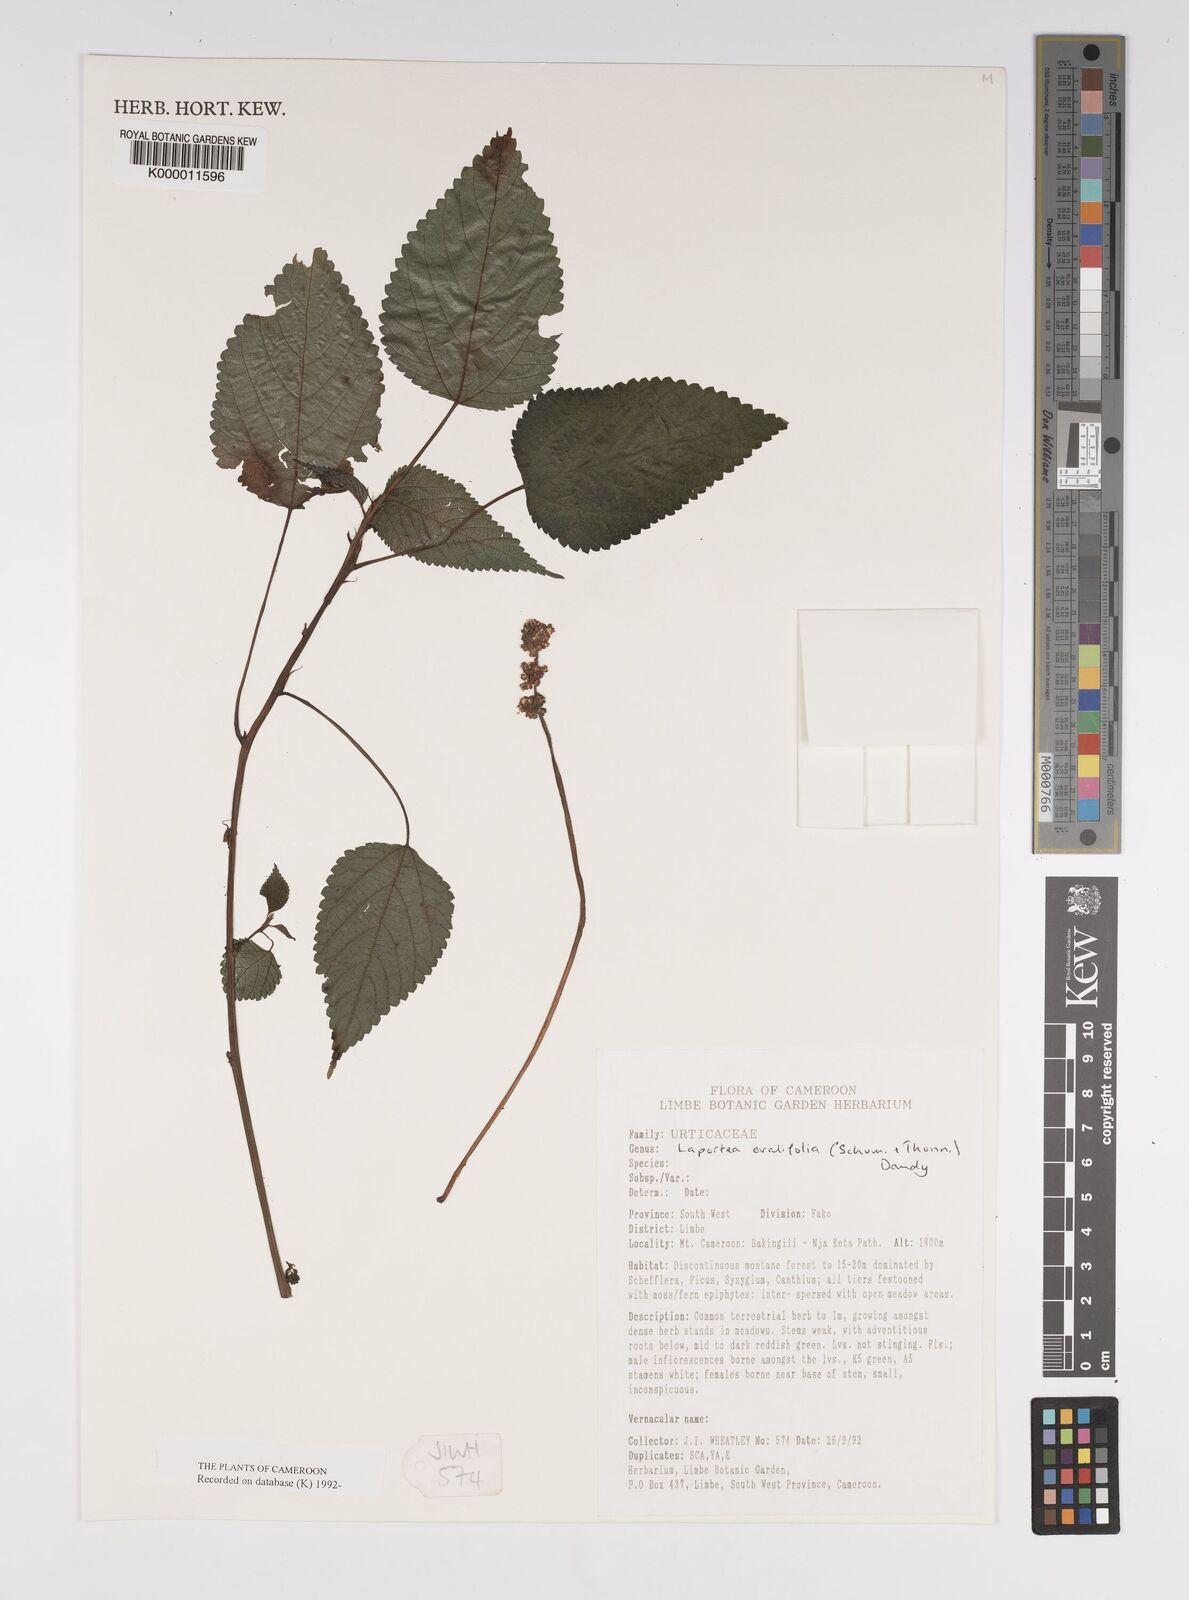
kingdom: Plantae
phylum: Tracheophyta
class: Magnoliopsida
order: Rosales
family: Urticaceae
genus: Laportea
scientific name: Laportea ovalifolia
